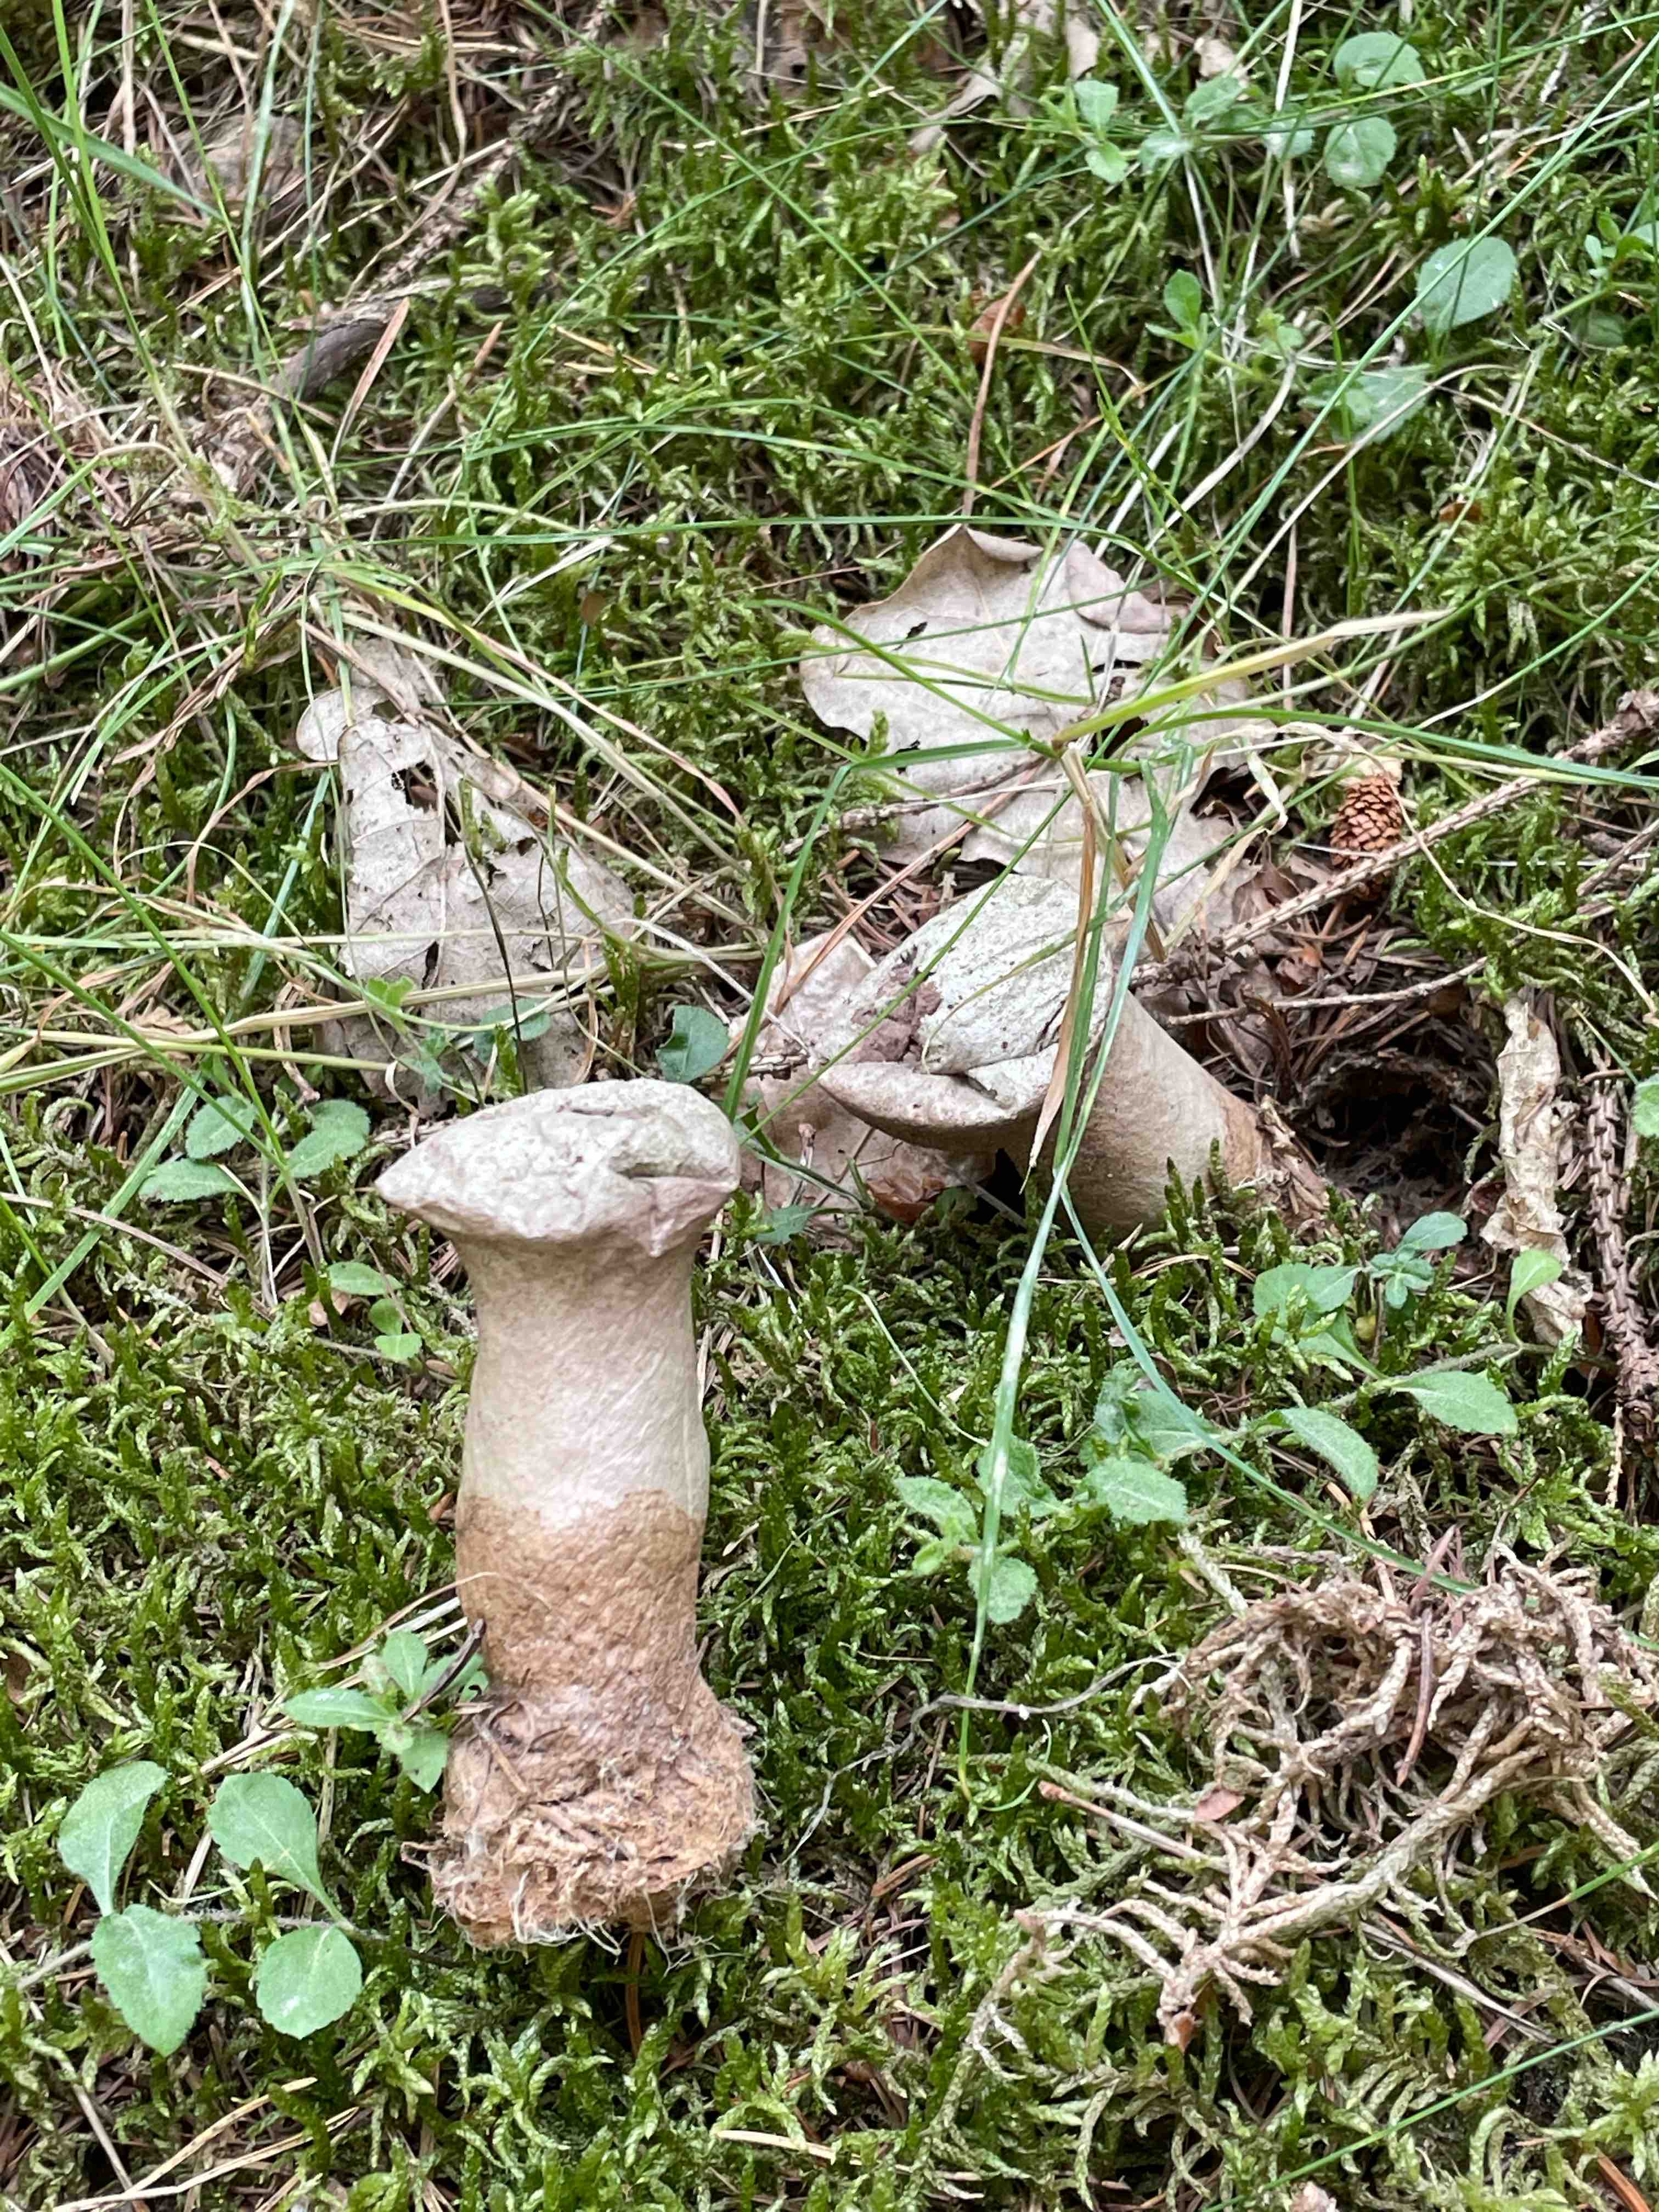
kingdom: Fungi
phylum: Basidiomycota
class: Agaricomycetes
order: Agaricales
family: Agaricaceae
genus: Lycoperdon
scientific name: Lycoperdon
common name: støvbold
